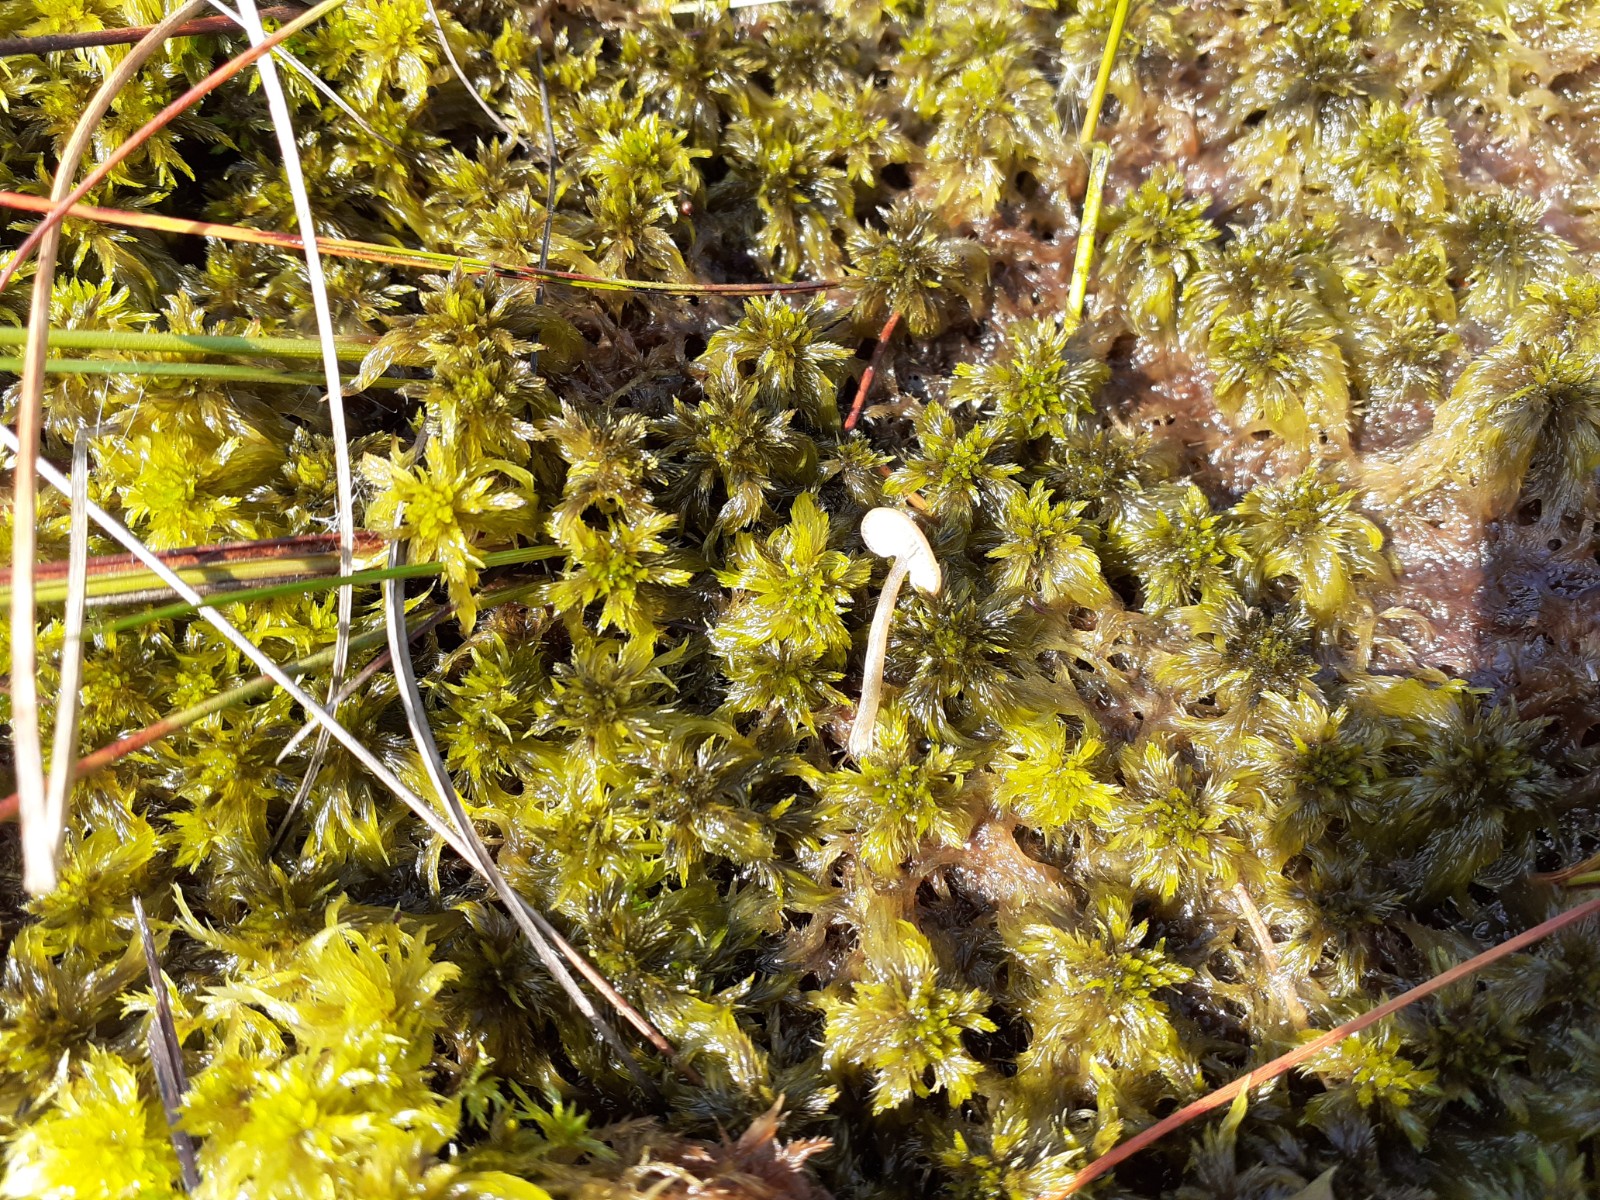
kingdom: Fungi
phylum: Basidiomycota
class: Agaricomycetes
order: Agaricales
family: Lyophyllaceae
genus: Sphagnurus
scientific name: Sphagnurus paluster
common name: tørvemos-gråblad
